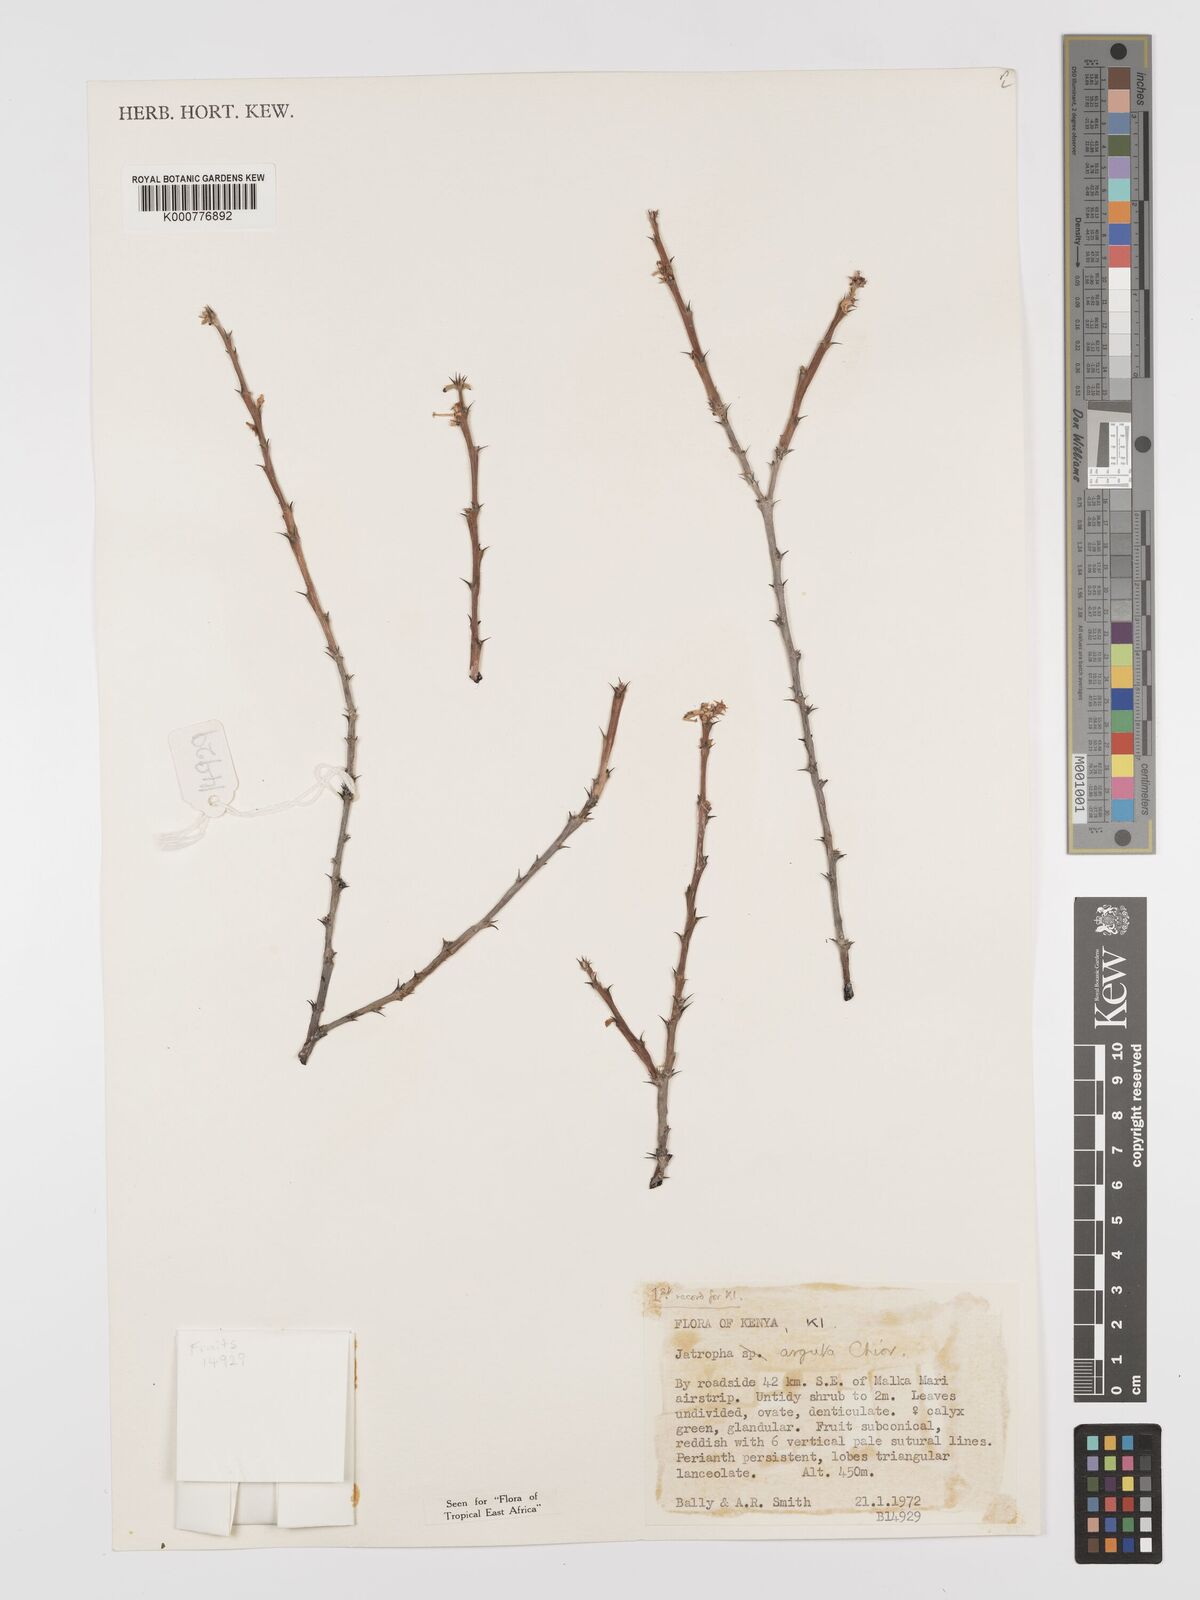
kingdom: Plantae
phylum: Tracheophyta
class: Magnoliopsida
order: Malpighiales
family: Euphorbiaceae
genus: Jatropha
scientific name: Jatropha rivae
